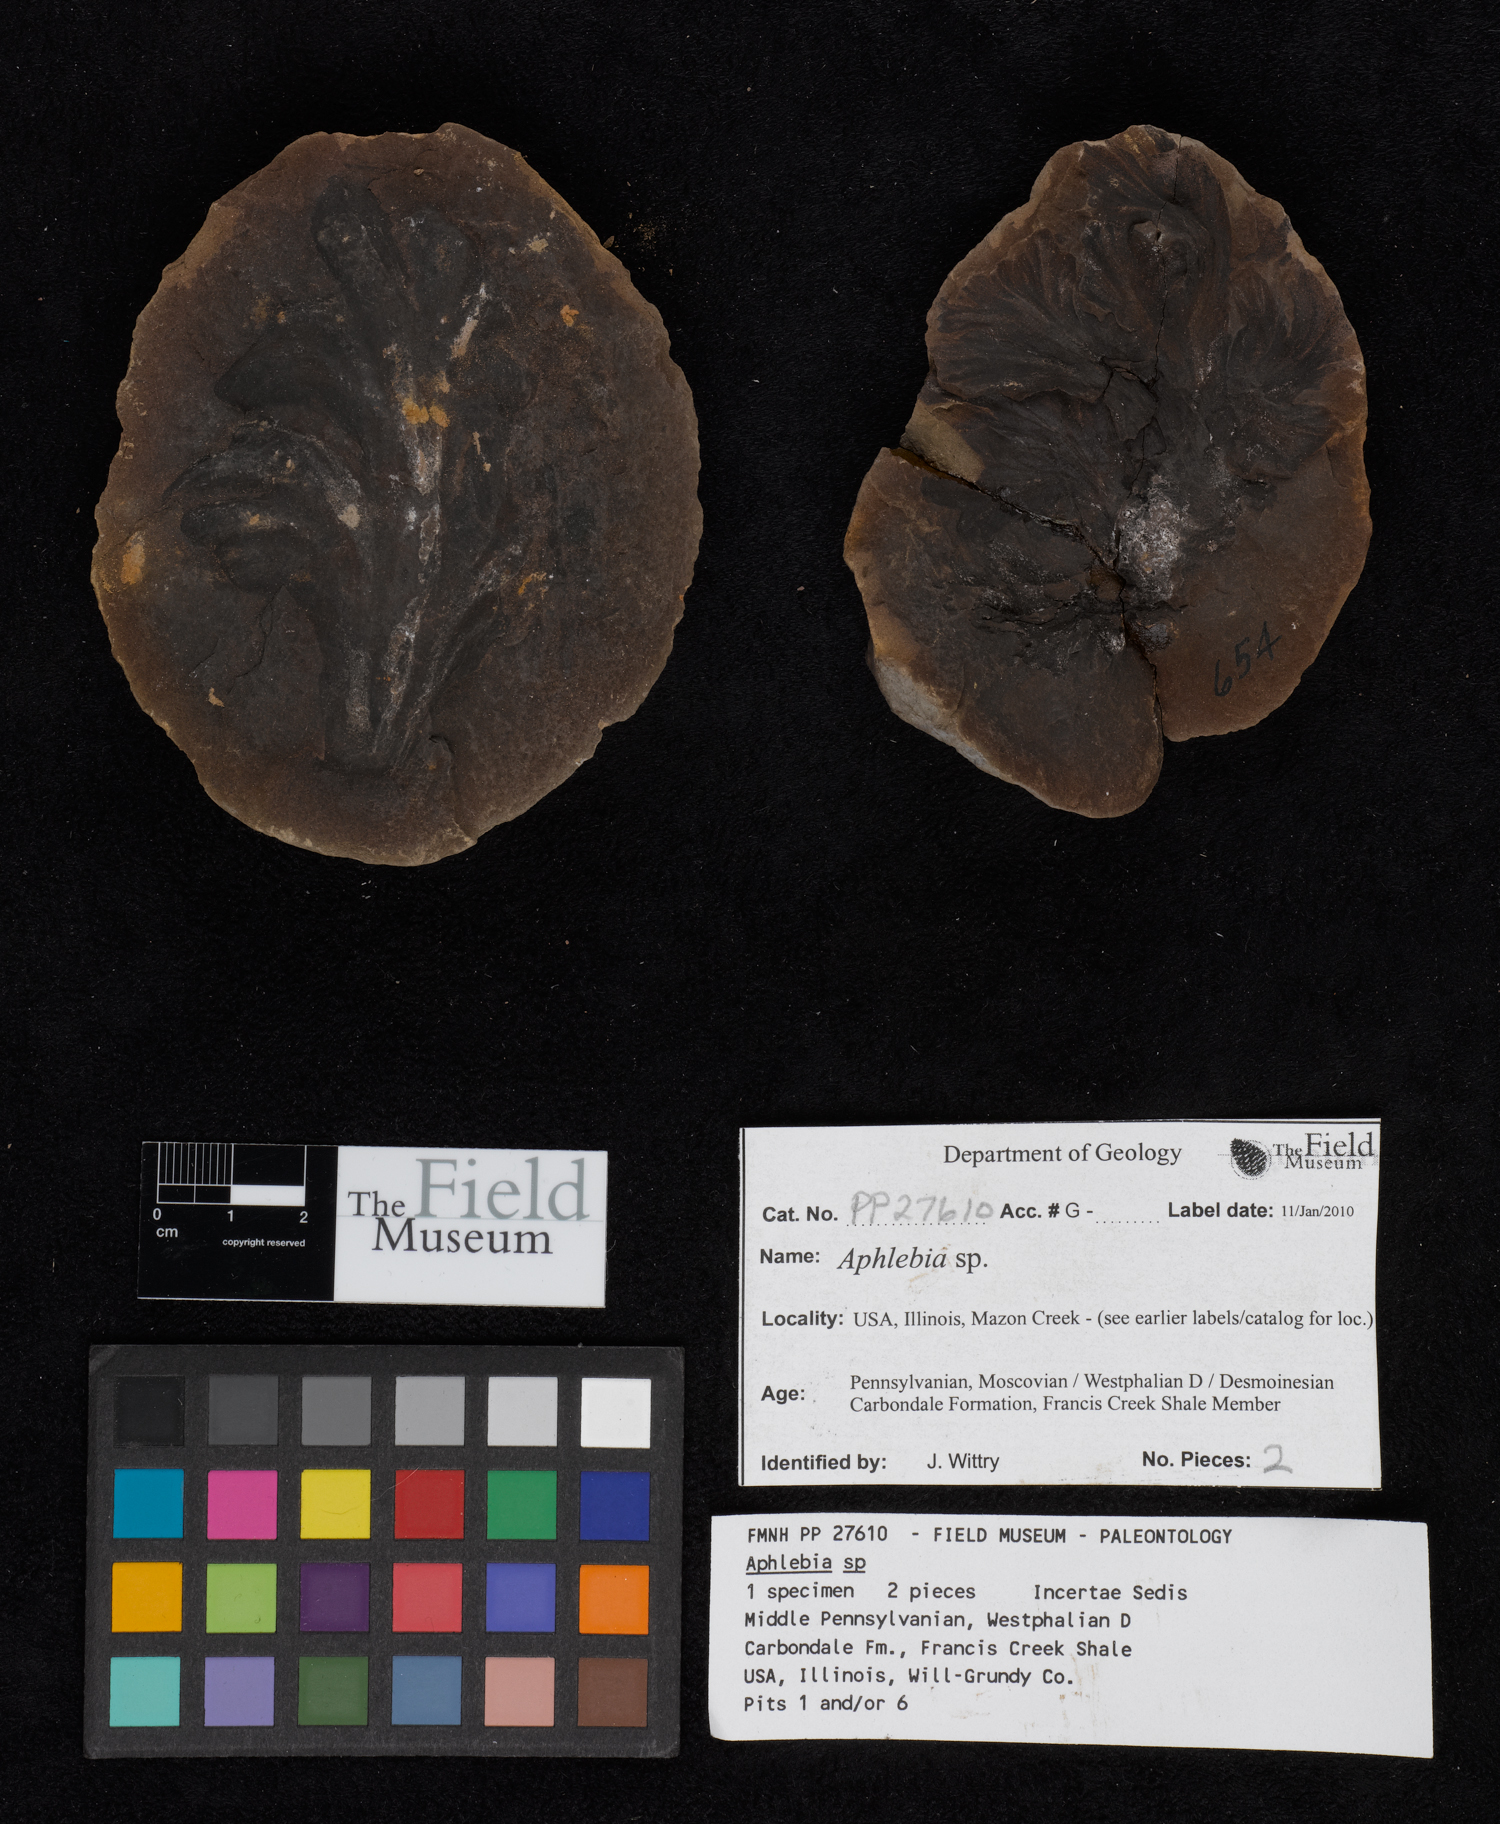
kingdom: Plantae
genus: Rhacophyllum
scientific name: Rhacophyllum
